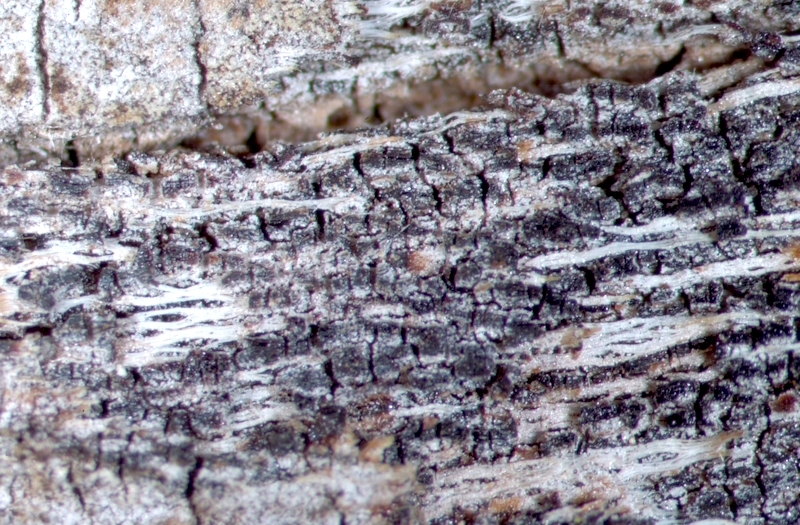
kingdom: Fungi
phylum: Ascomycota
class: Eurotiomycetes
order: Mycocaliciales
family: Mycocaliciaceae
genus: Chaenothecopsis
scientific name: Chaenothecopsis nana
